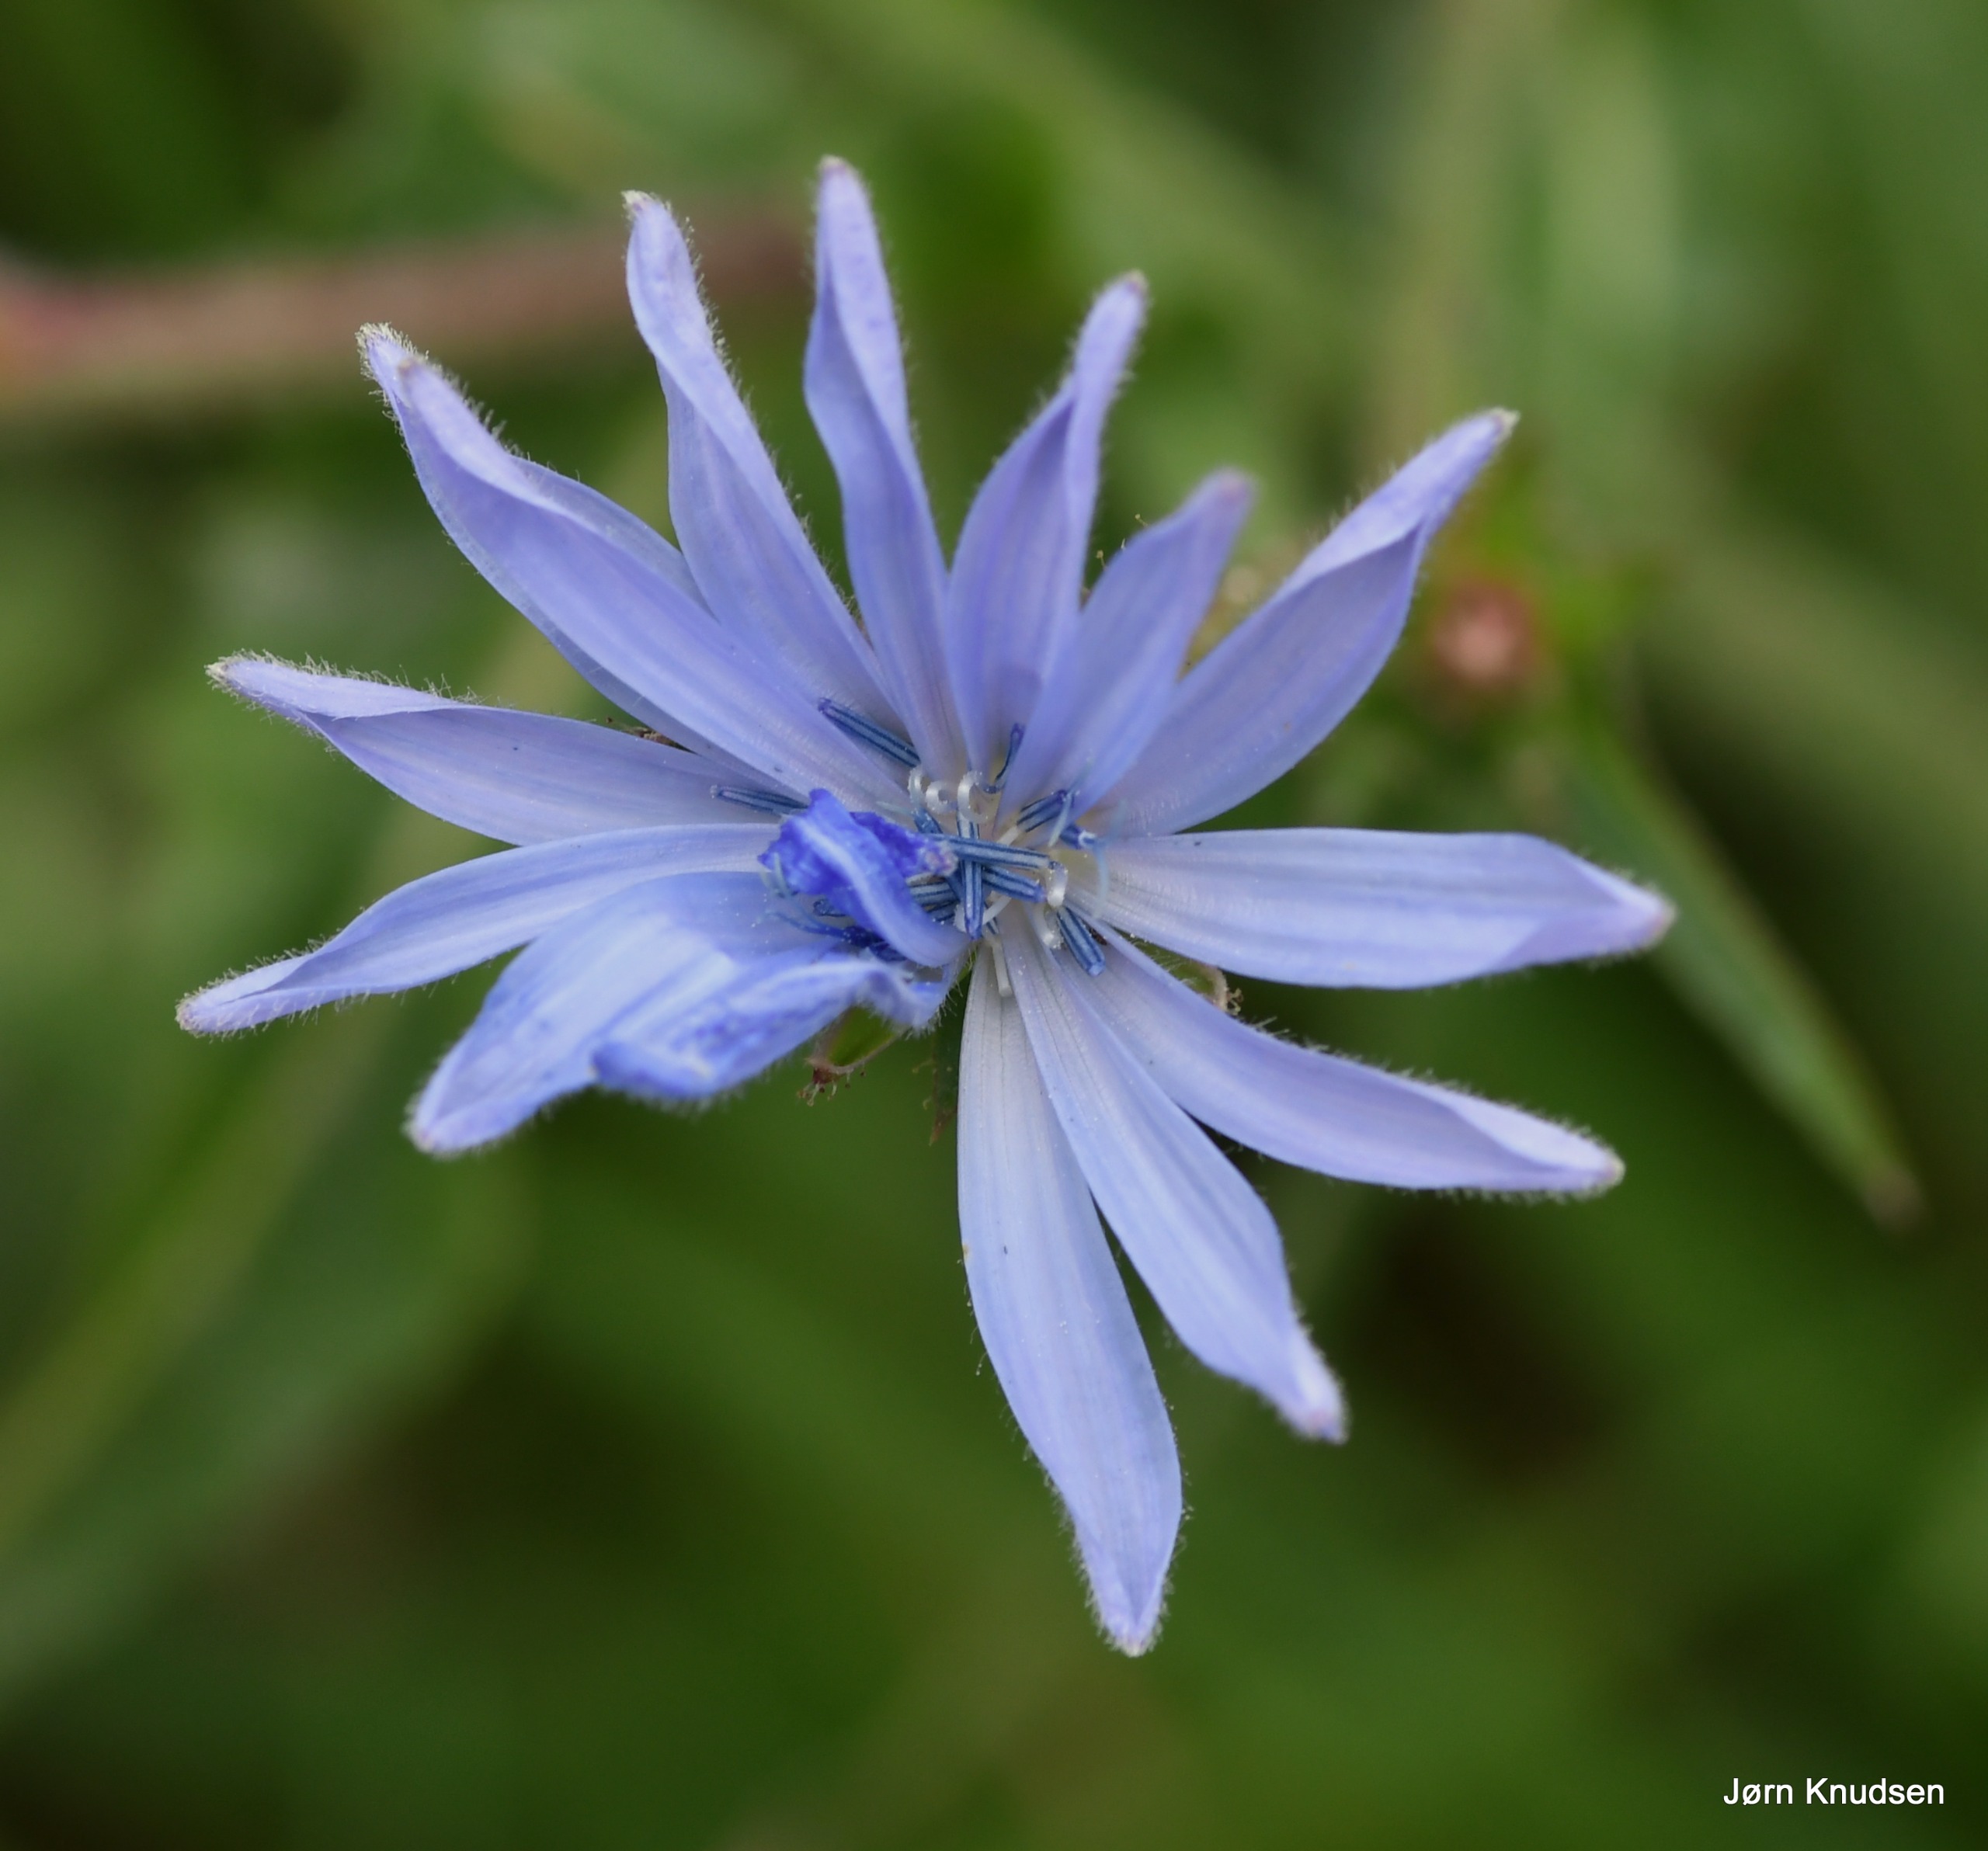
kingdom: Plantae
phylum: Tracheophyta
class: Magnoliopsida
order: Asterales
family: Asteraceae
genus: Cichorium
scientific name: Cichorium intybus
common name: Cikorie
